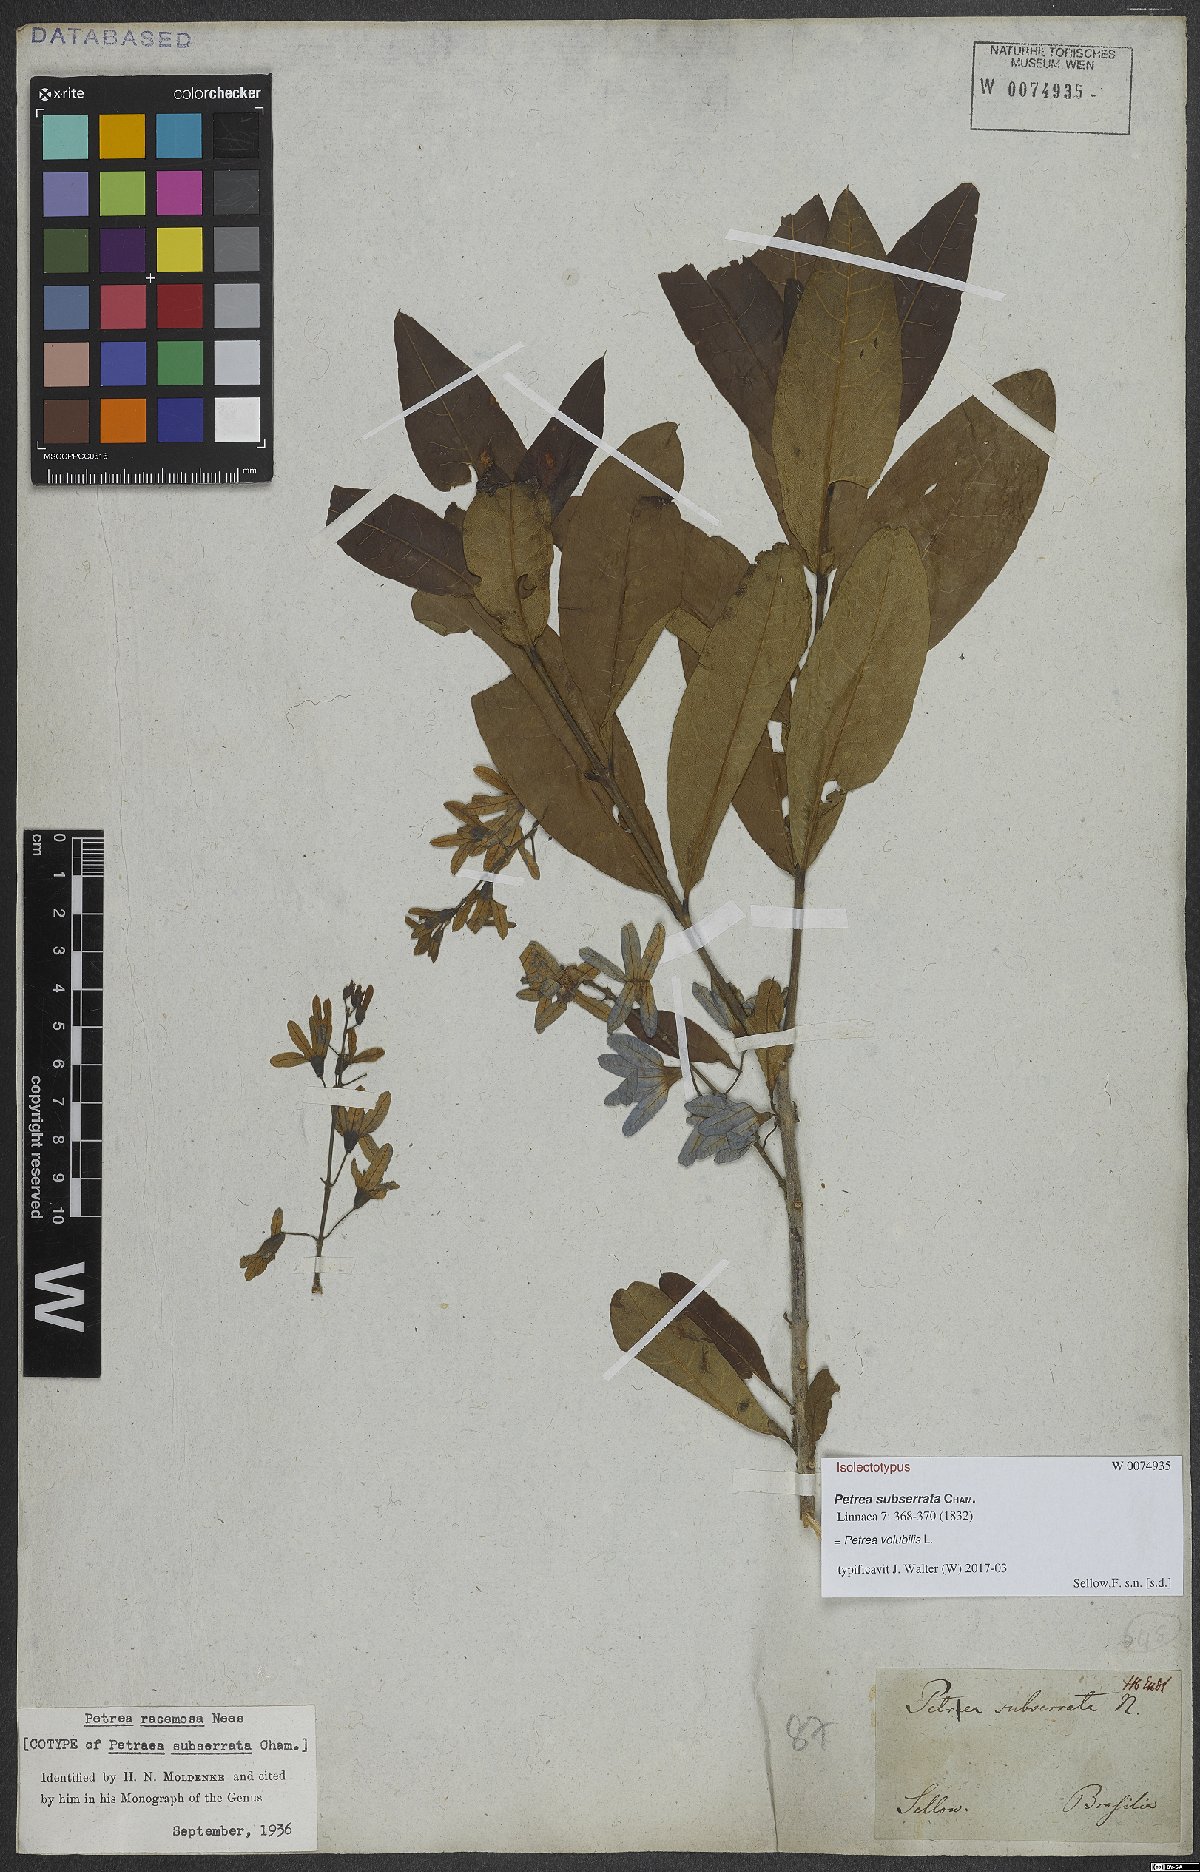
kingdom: Plantae
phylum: Tracheophyta
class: Magnoliopsida
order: Lamiales
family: Verbenaceae
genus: Petrea
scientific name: Petrea volubilis
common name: Queen's-wreath
